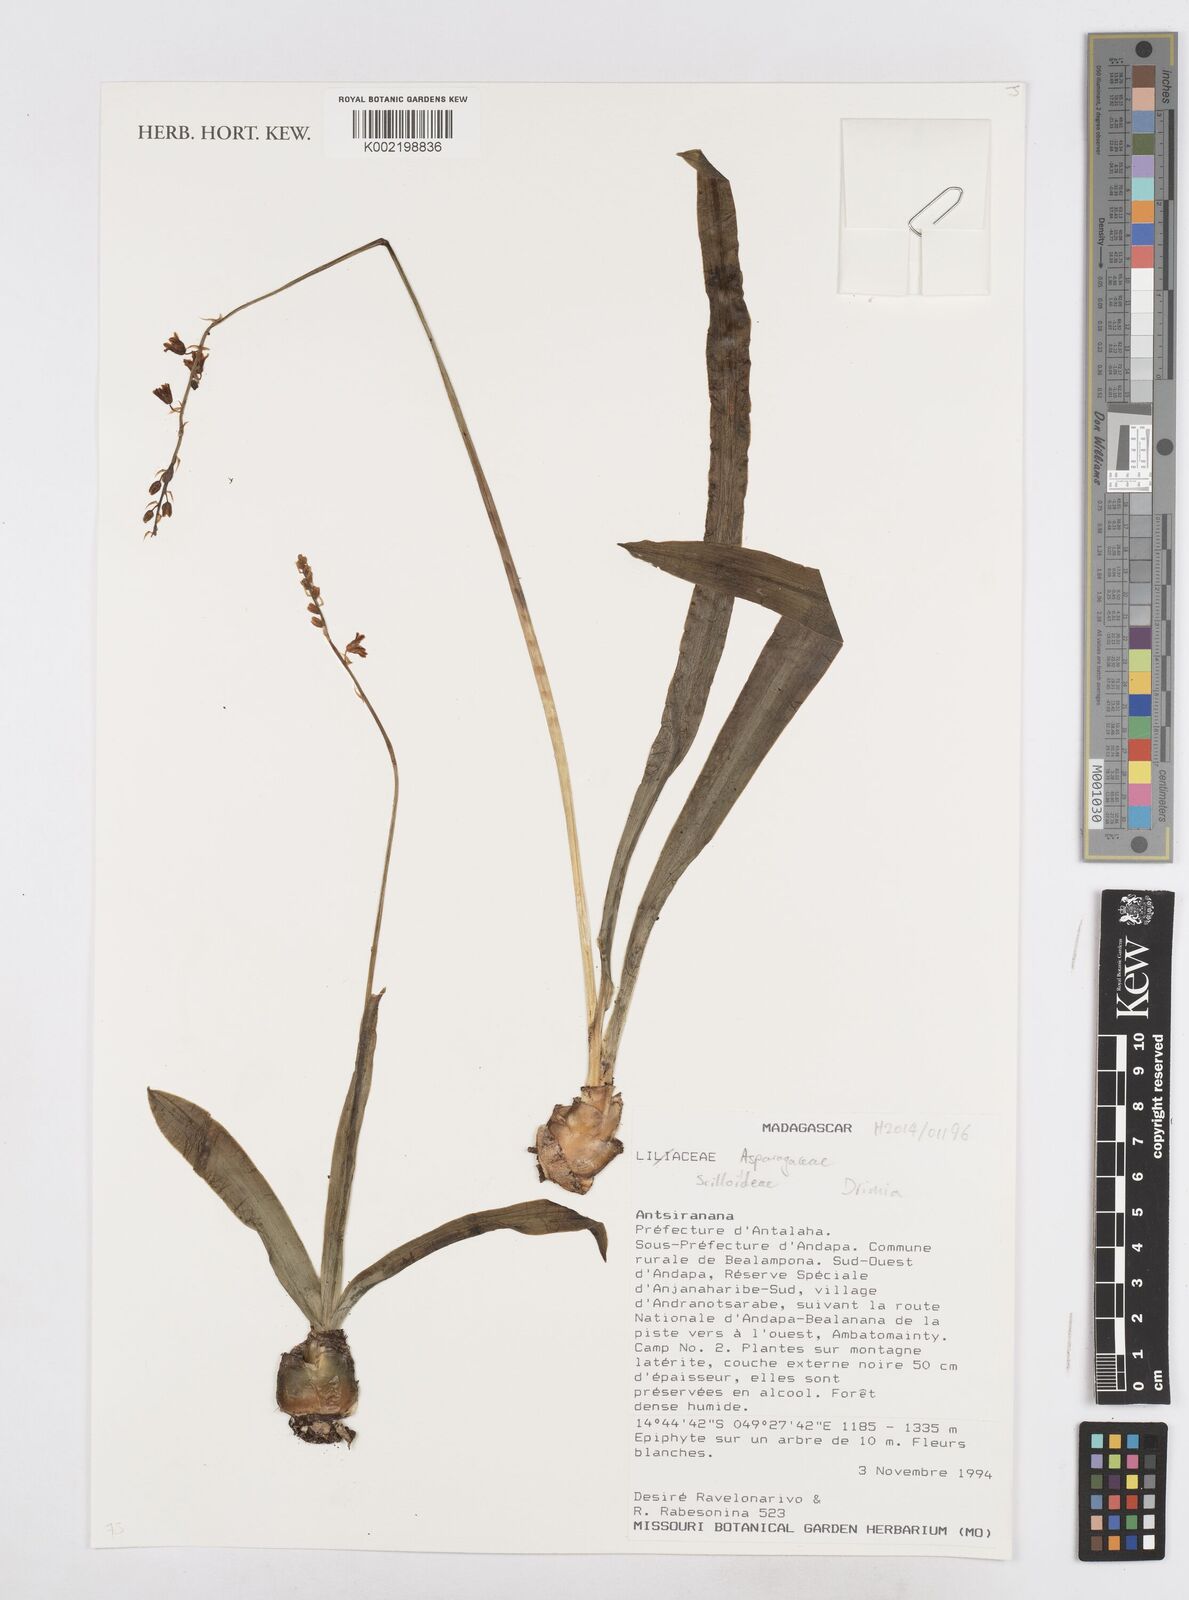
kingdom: Plantae
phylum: Tracheophyta
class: Liliopsida
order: Asparagales
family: Asparagaceae
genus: Drimia
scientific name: Drimia
